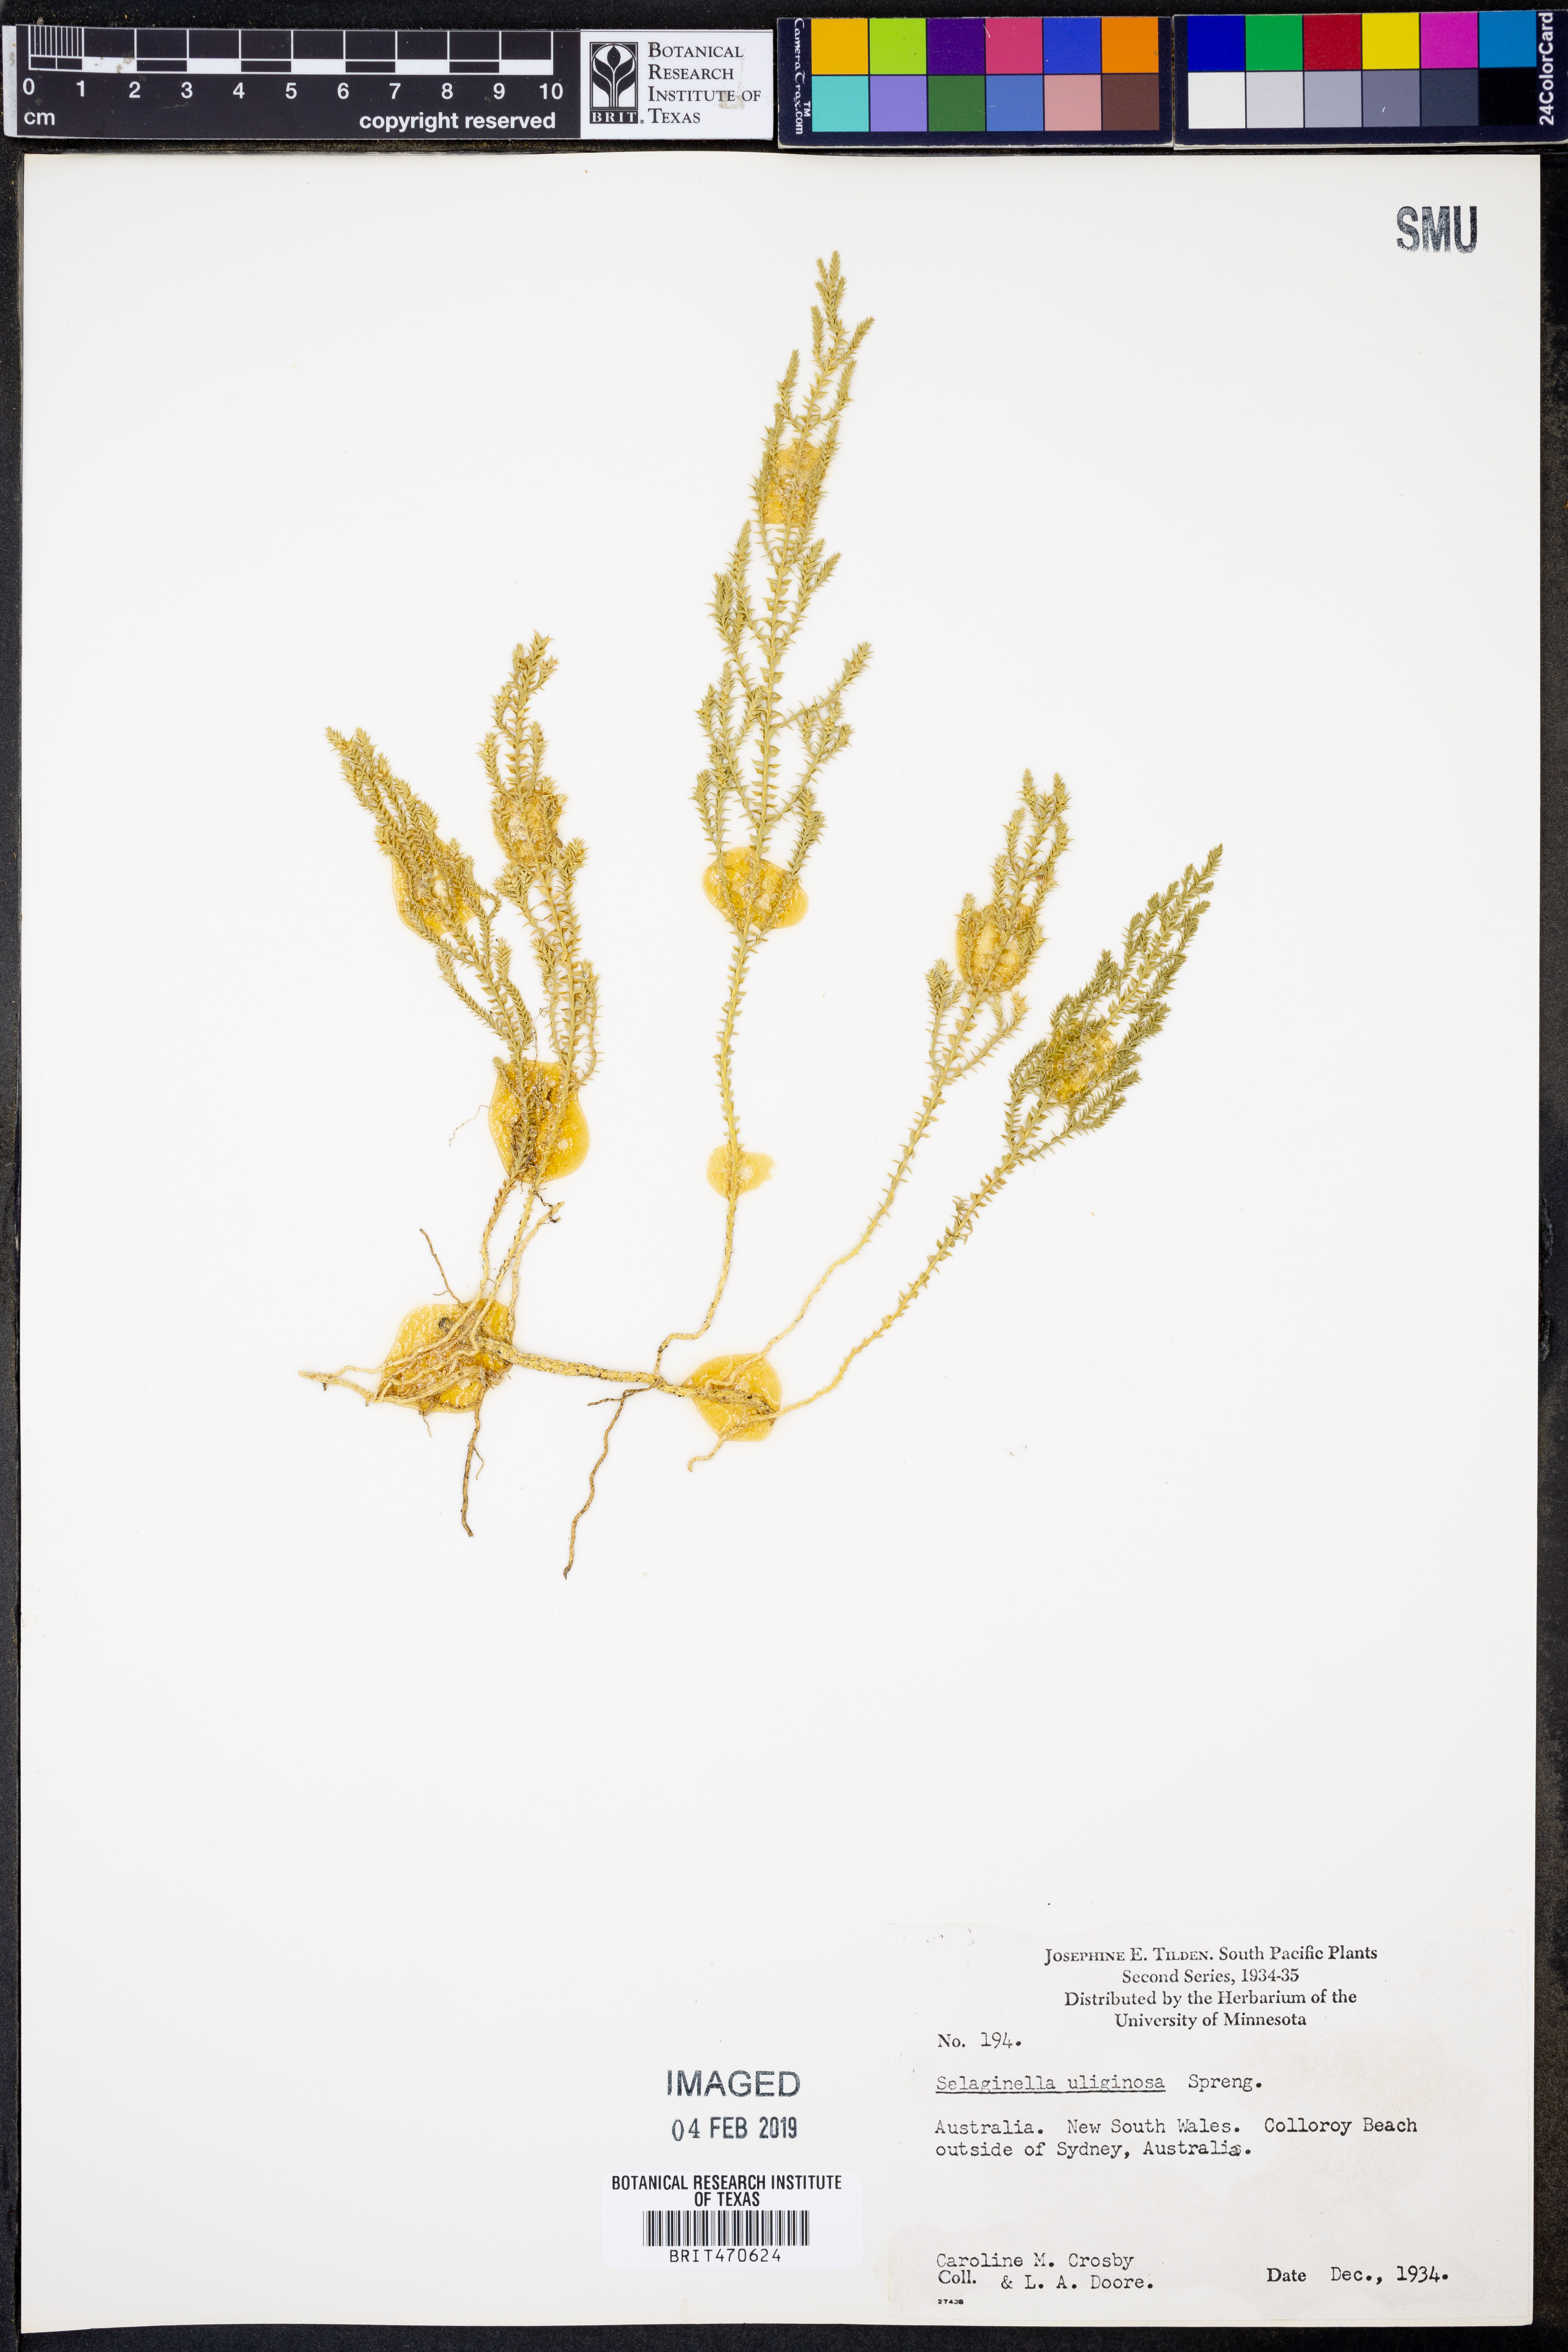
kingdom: Plantae
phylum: Tracheophyta
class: Lycopodiopsida
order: Selaginellales
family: Selaginellaceae
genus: Selaginella
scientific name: Selaginella uliginosa
